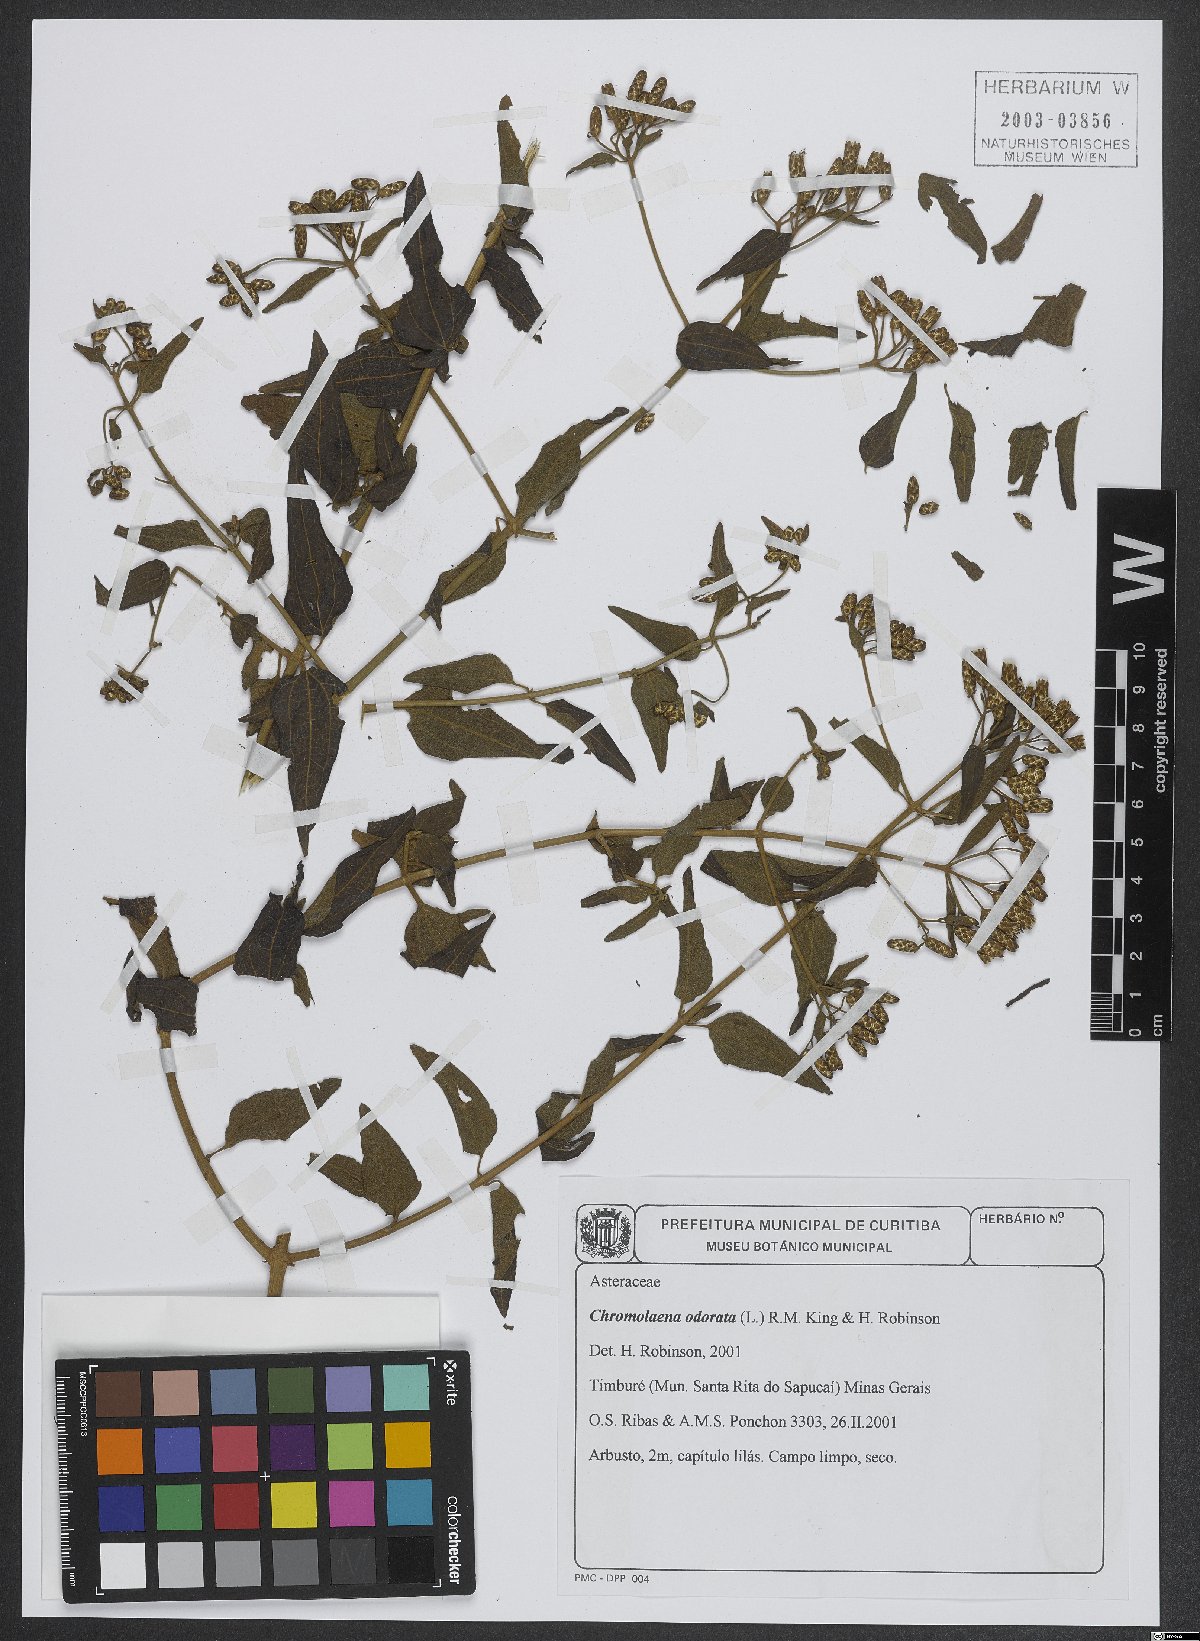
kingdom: Plantae
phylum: Tracheophyta
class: Magnoliopsida
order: Asterales
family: Asteraceae
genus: Chromolaena
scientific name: Chromolaena odorata
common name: Siamweed
